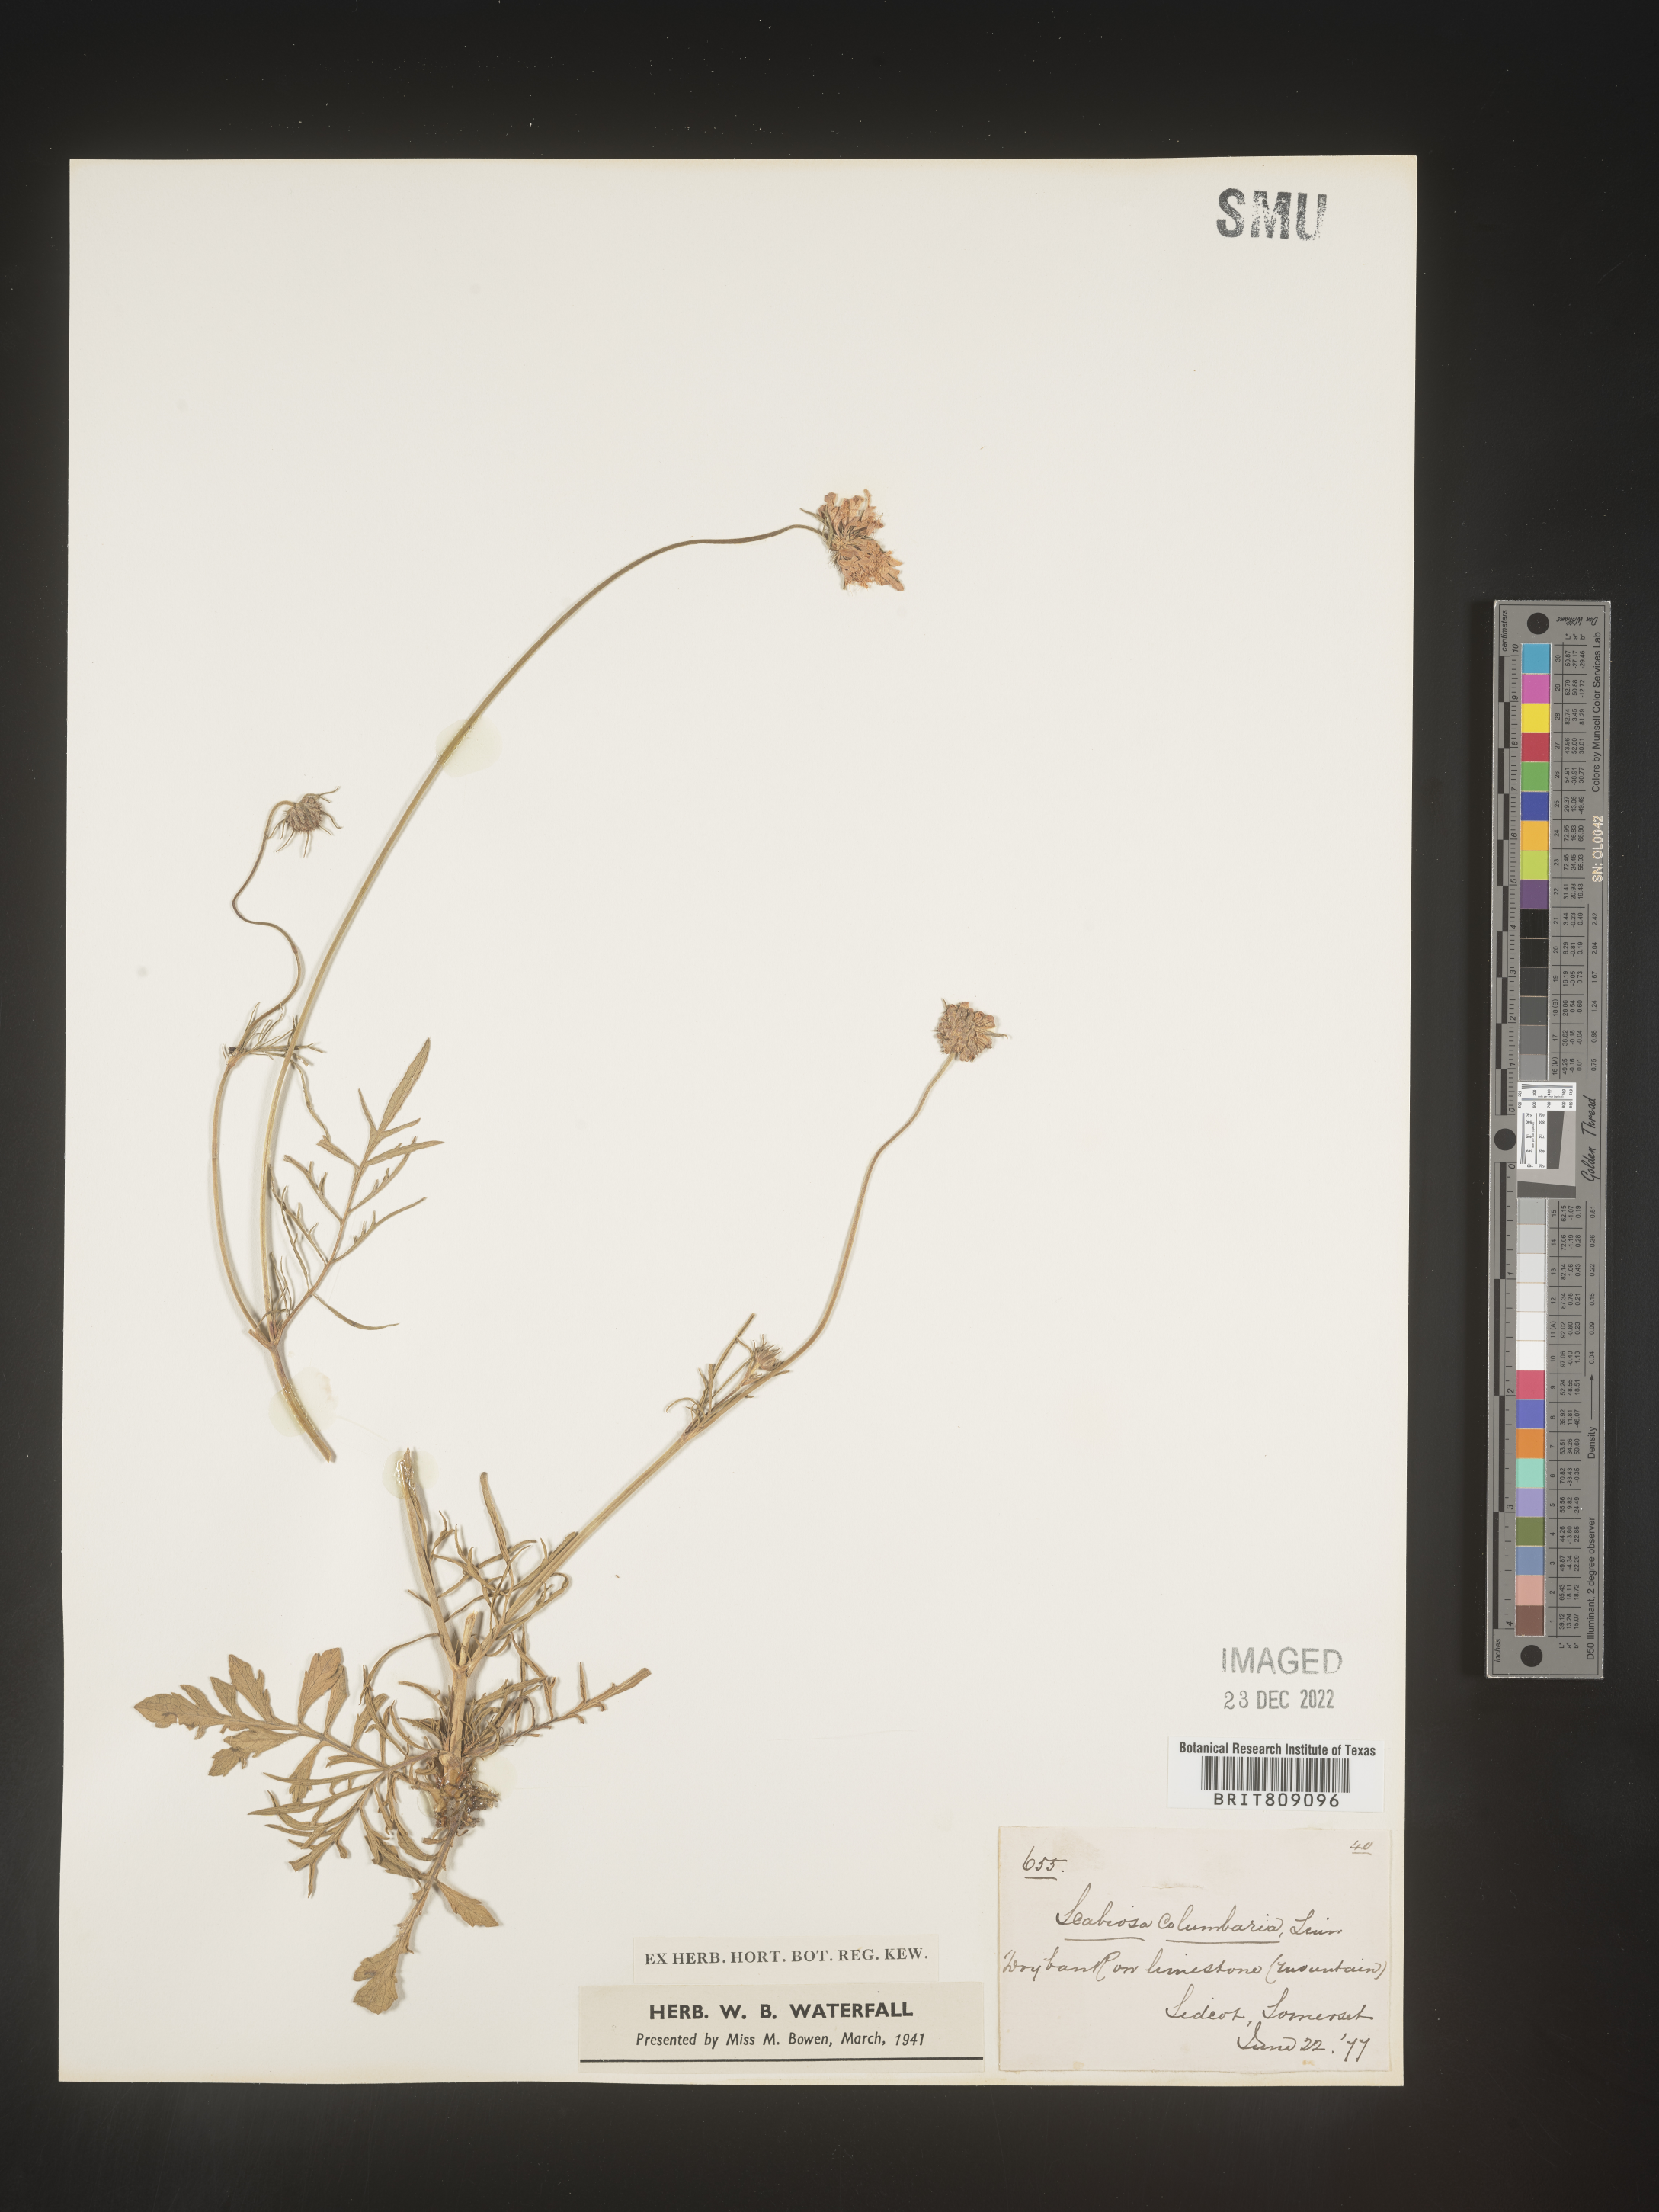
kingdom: Plantae
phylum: Tracheophyta
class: Magnoliopsida
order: Dipsacales
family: Caprifoliaceae
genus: Scabiosa
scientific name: Scabiosa
